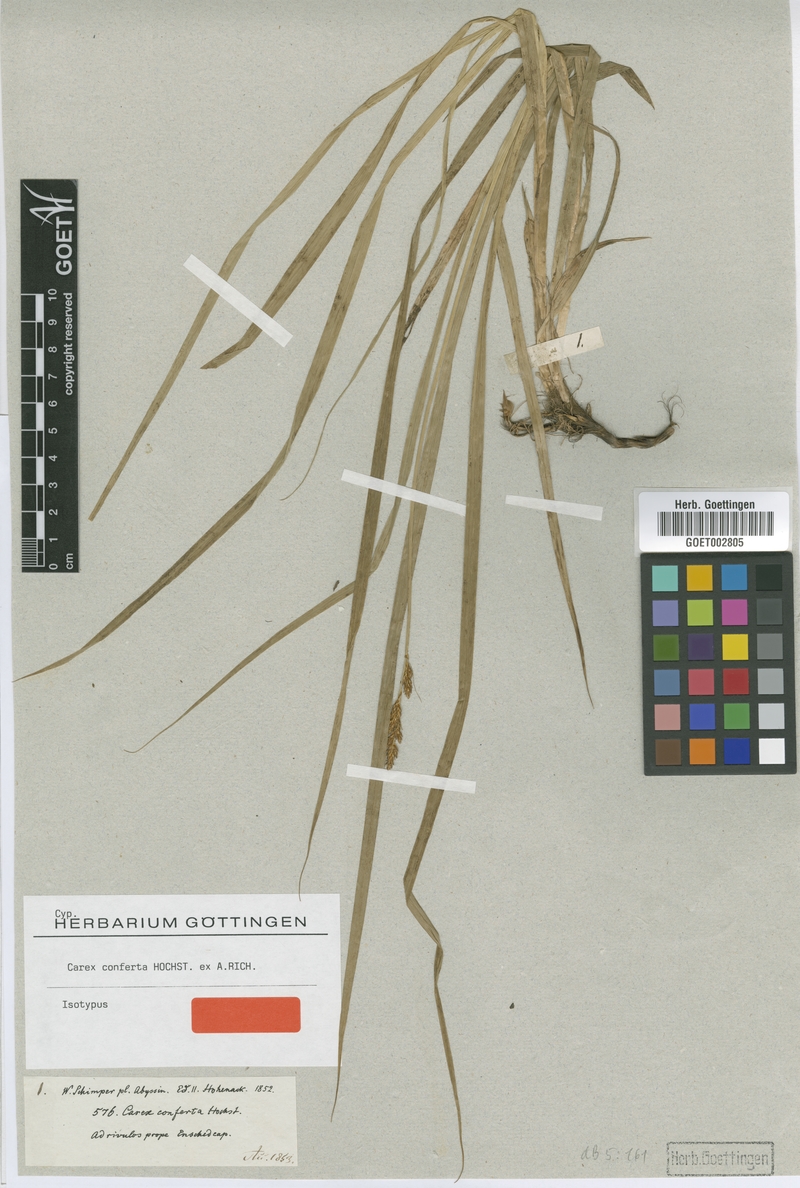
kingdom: Plantae
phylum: Tracheophyta
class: Liliopsida
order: Poales
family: Cyperaceae
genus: Carex
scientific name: Carex conferta
